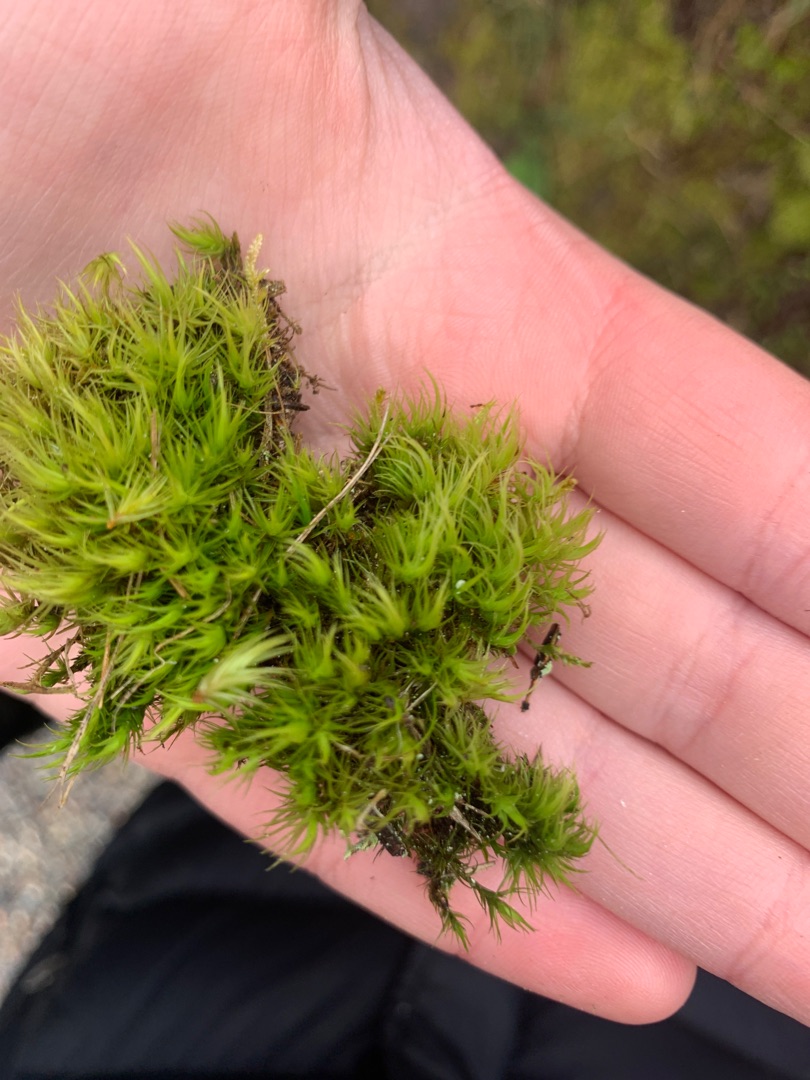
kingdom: Plantae
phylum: Bryophyta
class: Bryopsida
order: Dicranales
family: Dicranaceae
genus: Dicranum
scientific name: Dicranum scoparium
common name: Almindelig kløvtand
